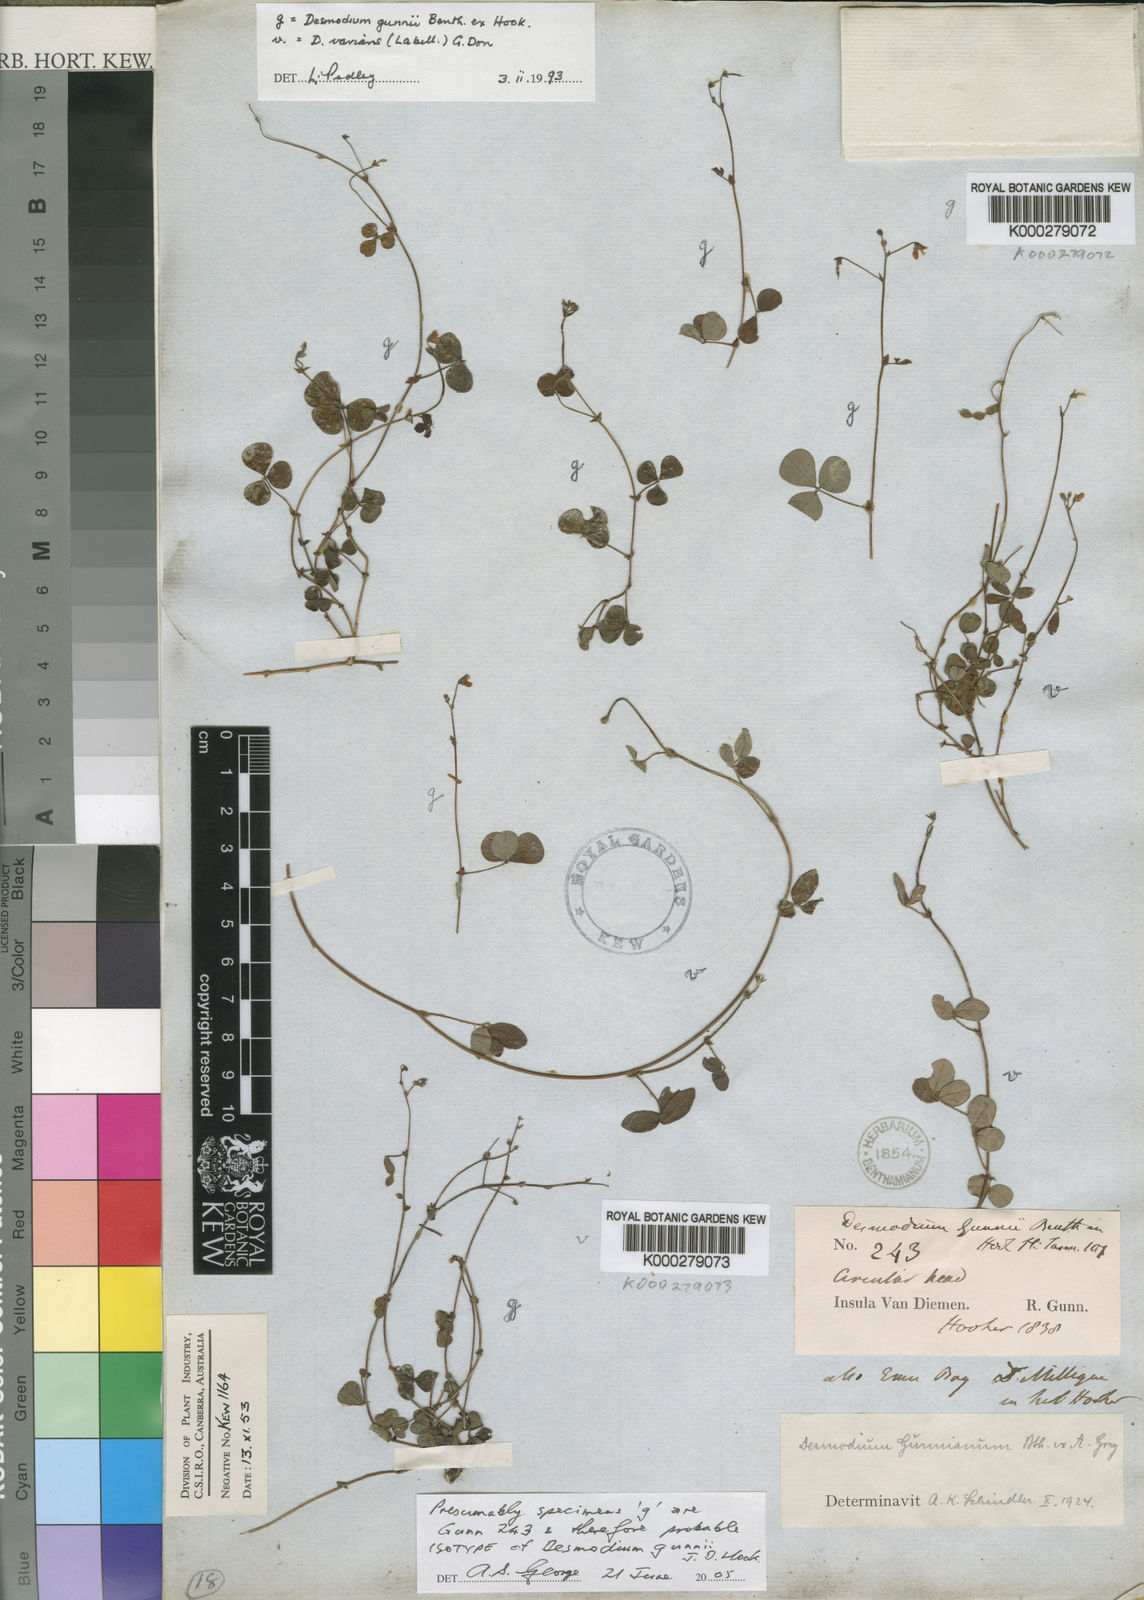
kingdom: Plantae
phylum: Tracheophyta
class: Magnoliopsida
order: Fabales
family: Fabaceae
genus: Pullenia
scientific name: Pullenia gunnii
